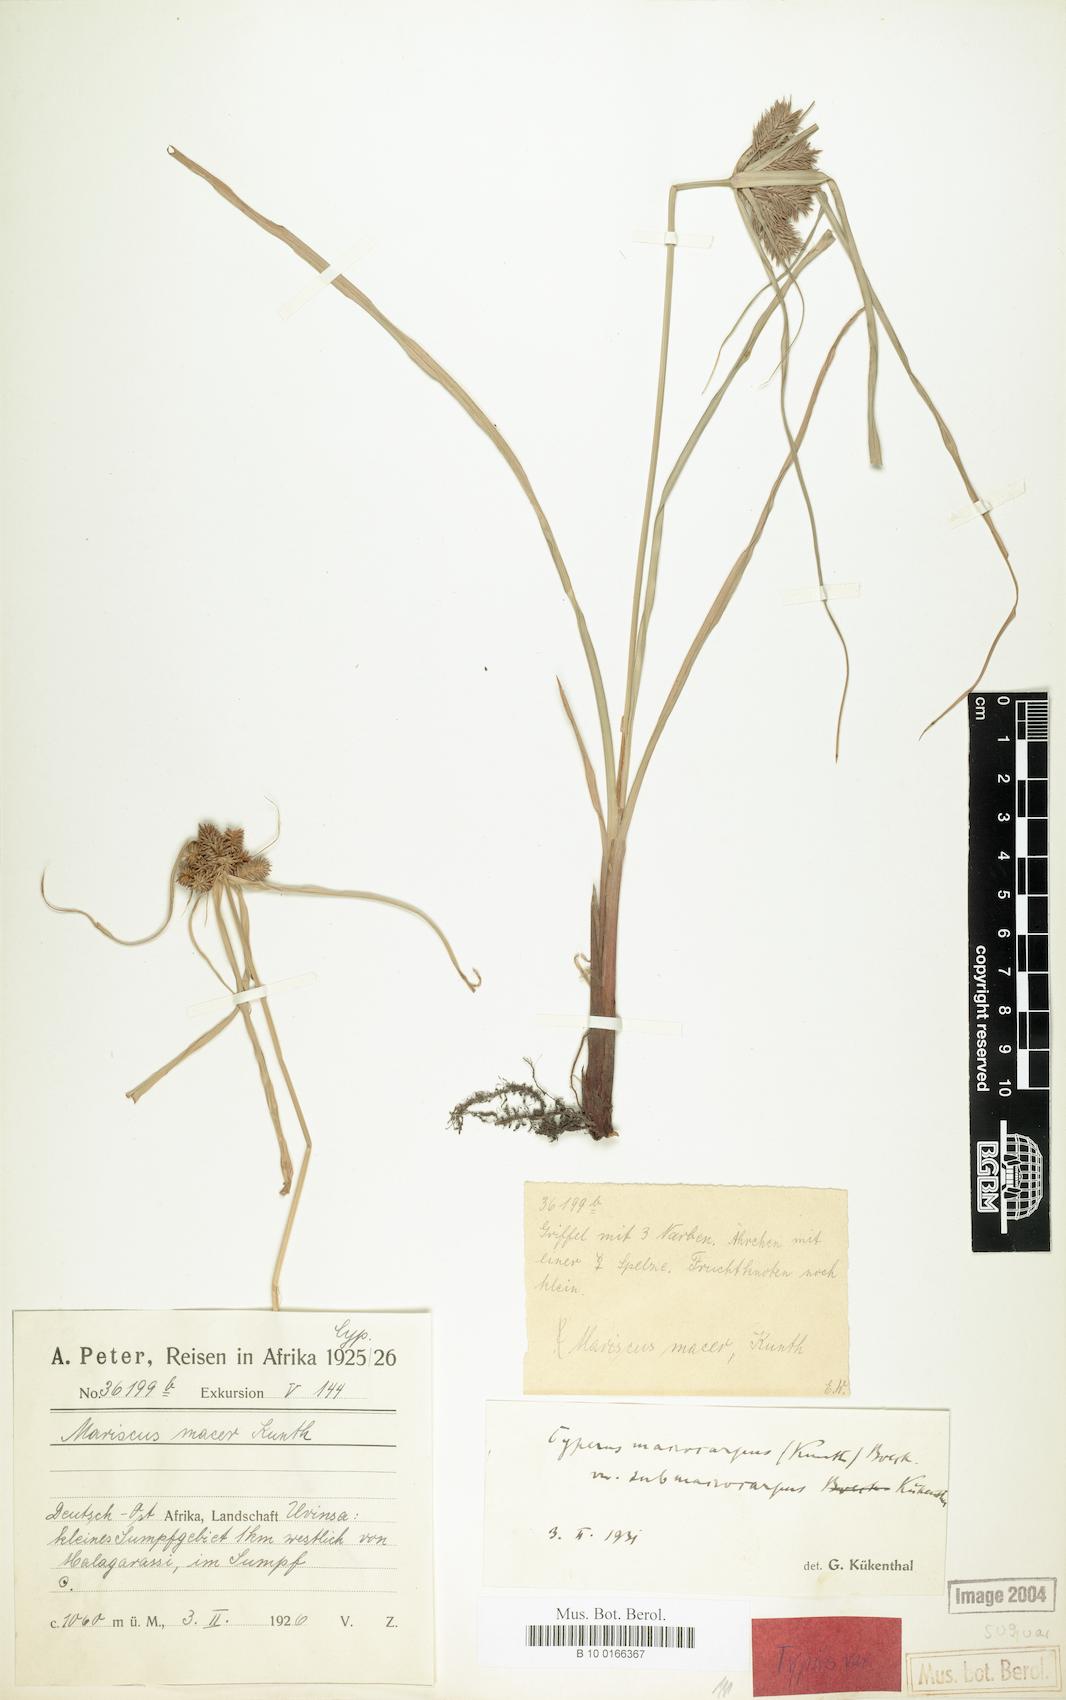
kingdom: Plantae
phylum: Tracheophyta
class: Liliopsida
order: Poales
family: Cyperaceae
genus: Cyperus
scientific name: Cyperus cyperoides
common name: Pacific island flat sedge
